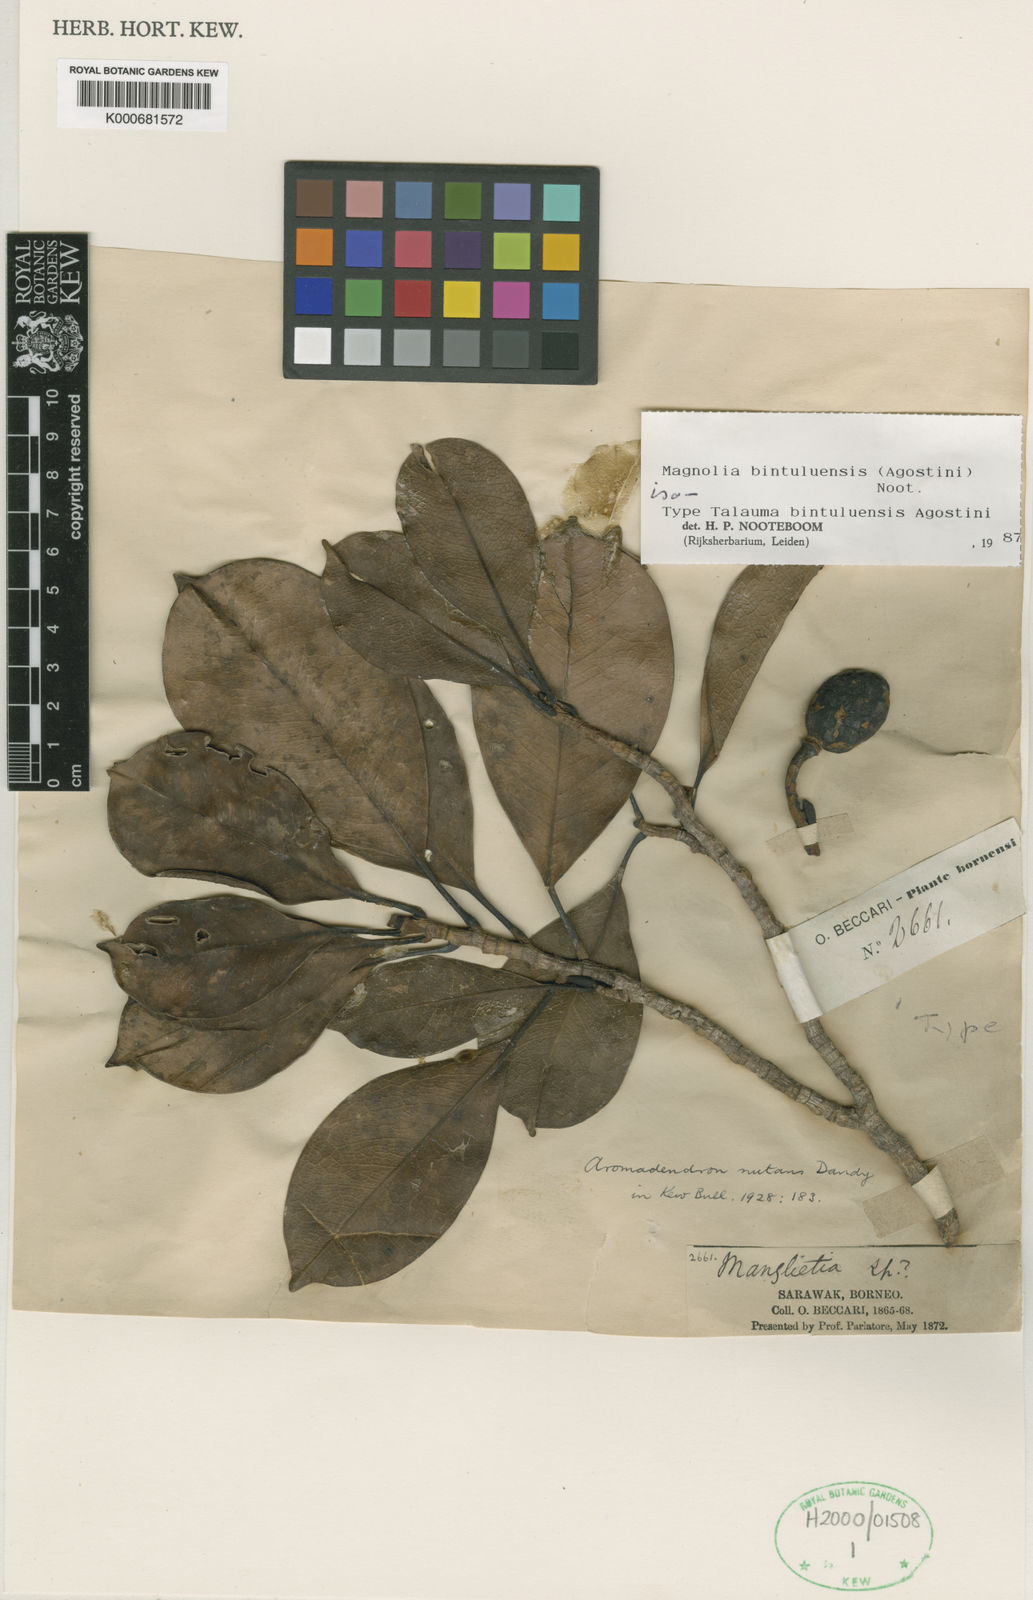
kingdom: Plantae
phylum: Tracheophyta
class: Magnoliopsida
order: Magnoliales
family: Magnoliaceae
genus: Magnolia
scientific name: Magnolia bintuluensis
